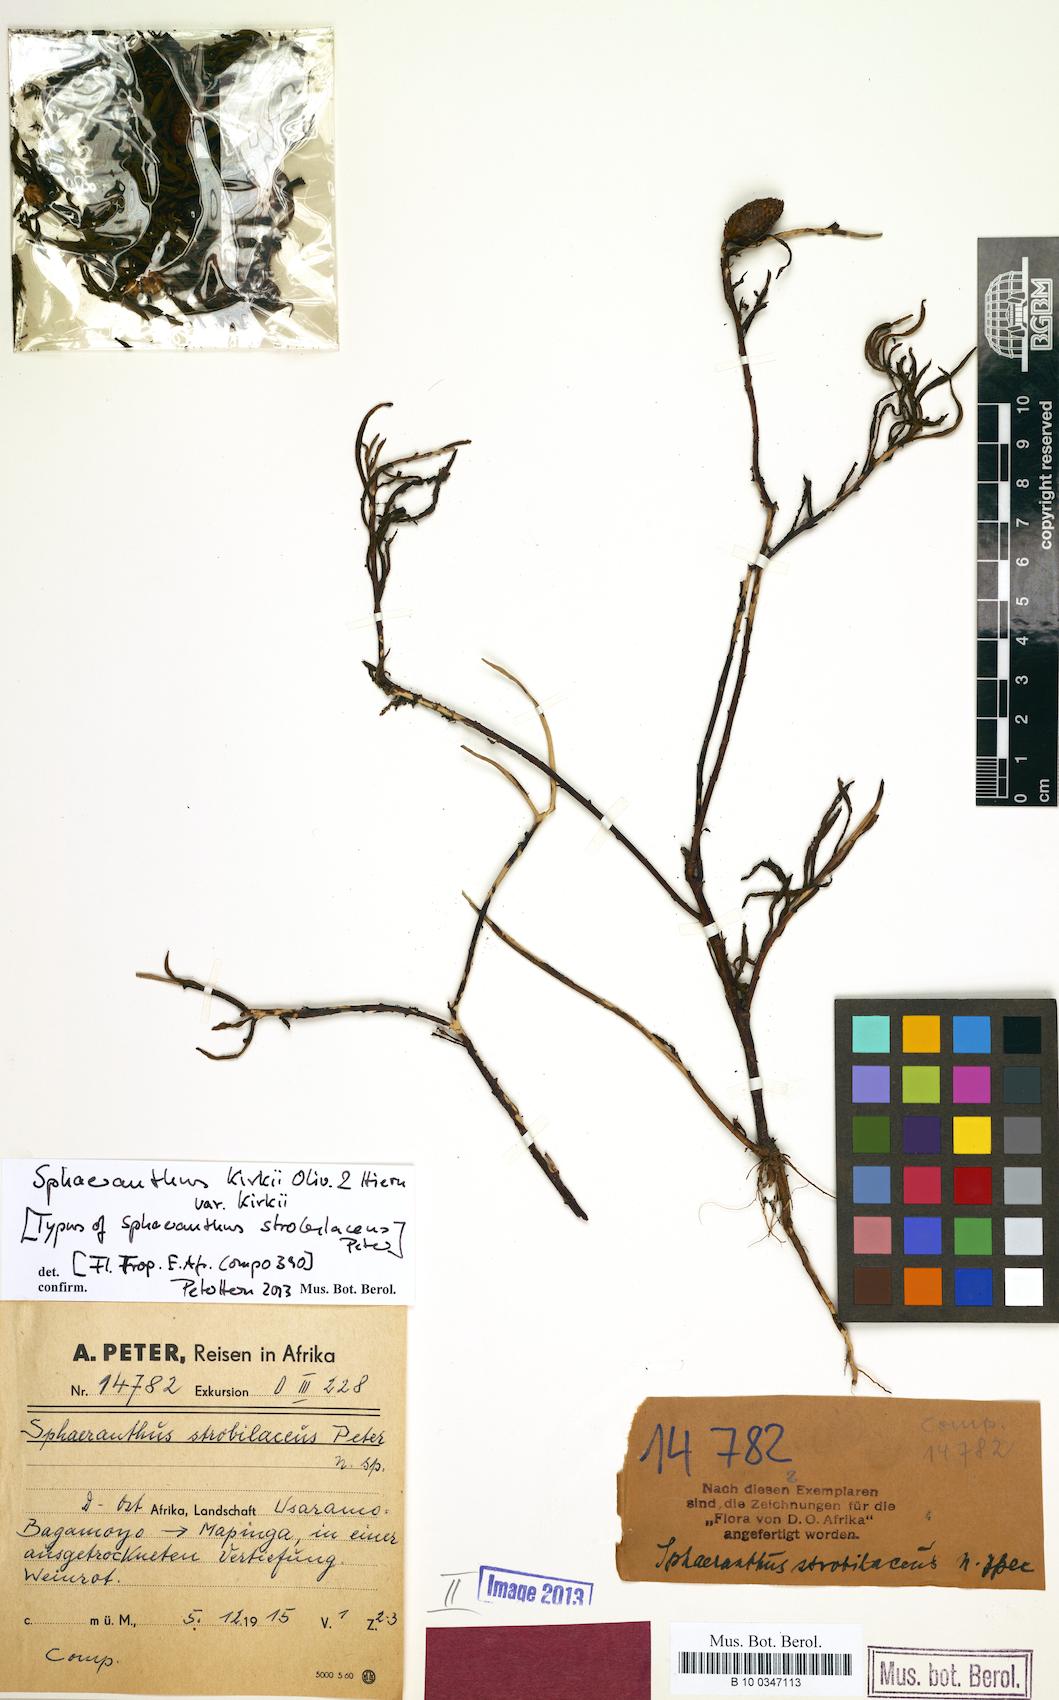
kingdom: Plantae
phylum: Tracheophyta
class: Magnoliopsida
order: Asterales
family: Asteraceae
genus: Sphaeranthus
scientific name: Sphaeranthus kirkii
